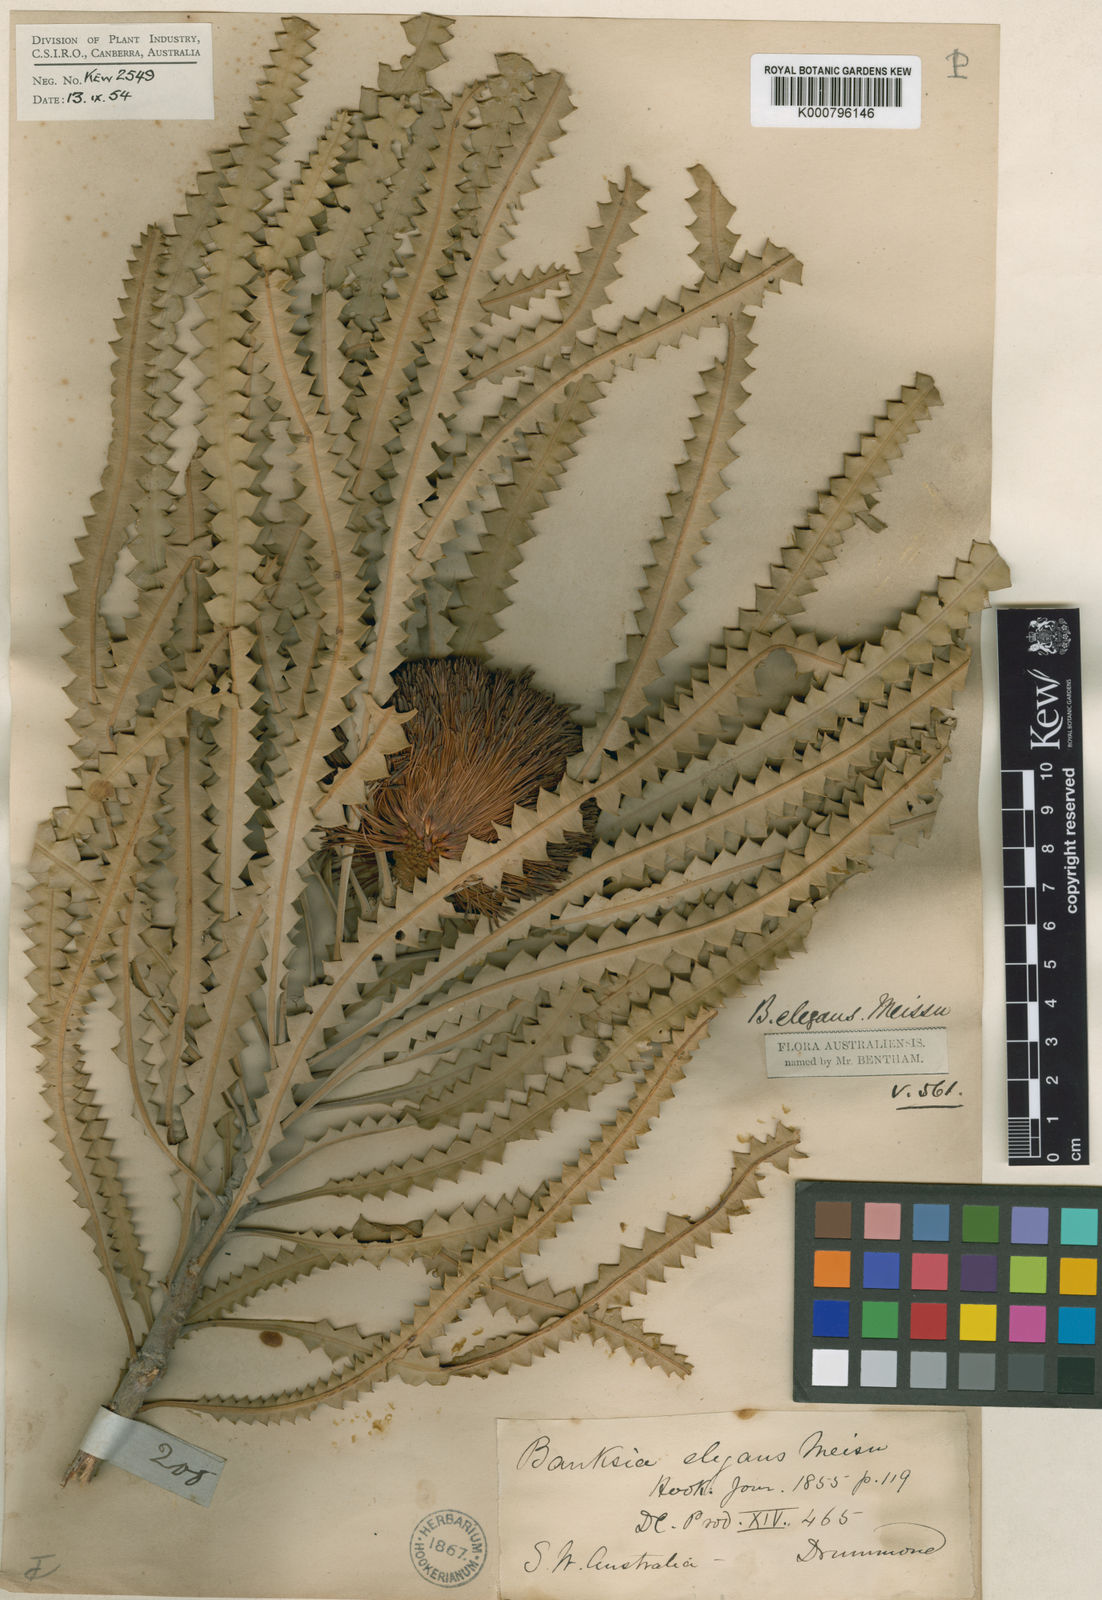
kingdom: Plantae
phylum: Tracheophyta
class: Magnoliopsida
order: Proteales
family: Proteaceae
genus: Banksia
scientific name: Banksia elegans
